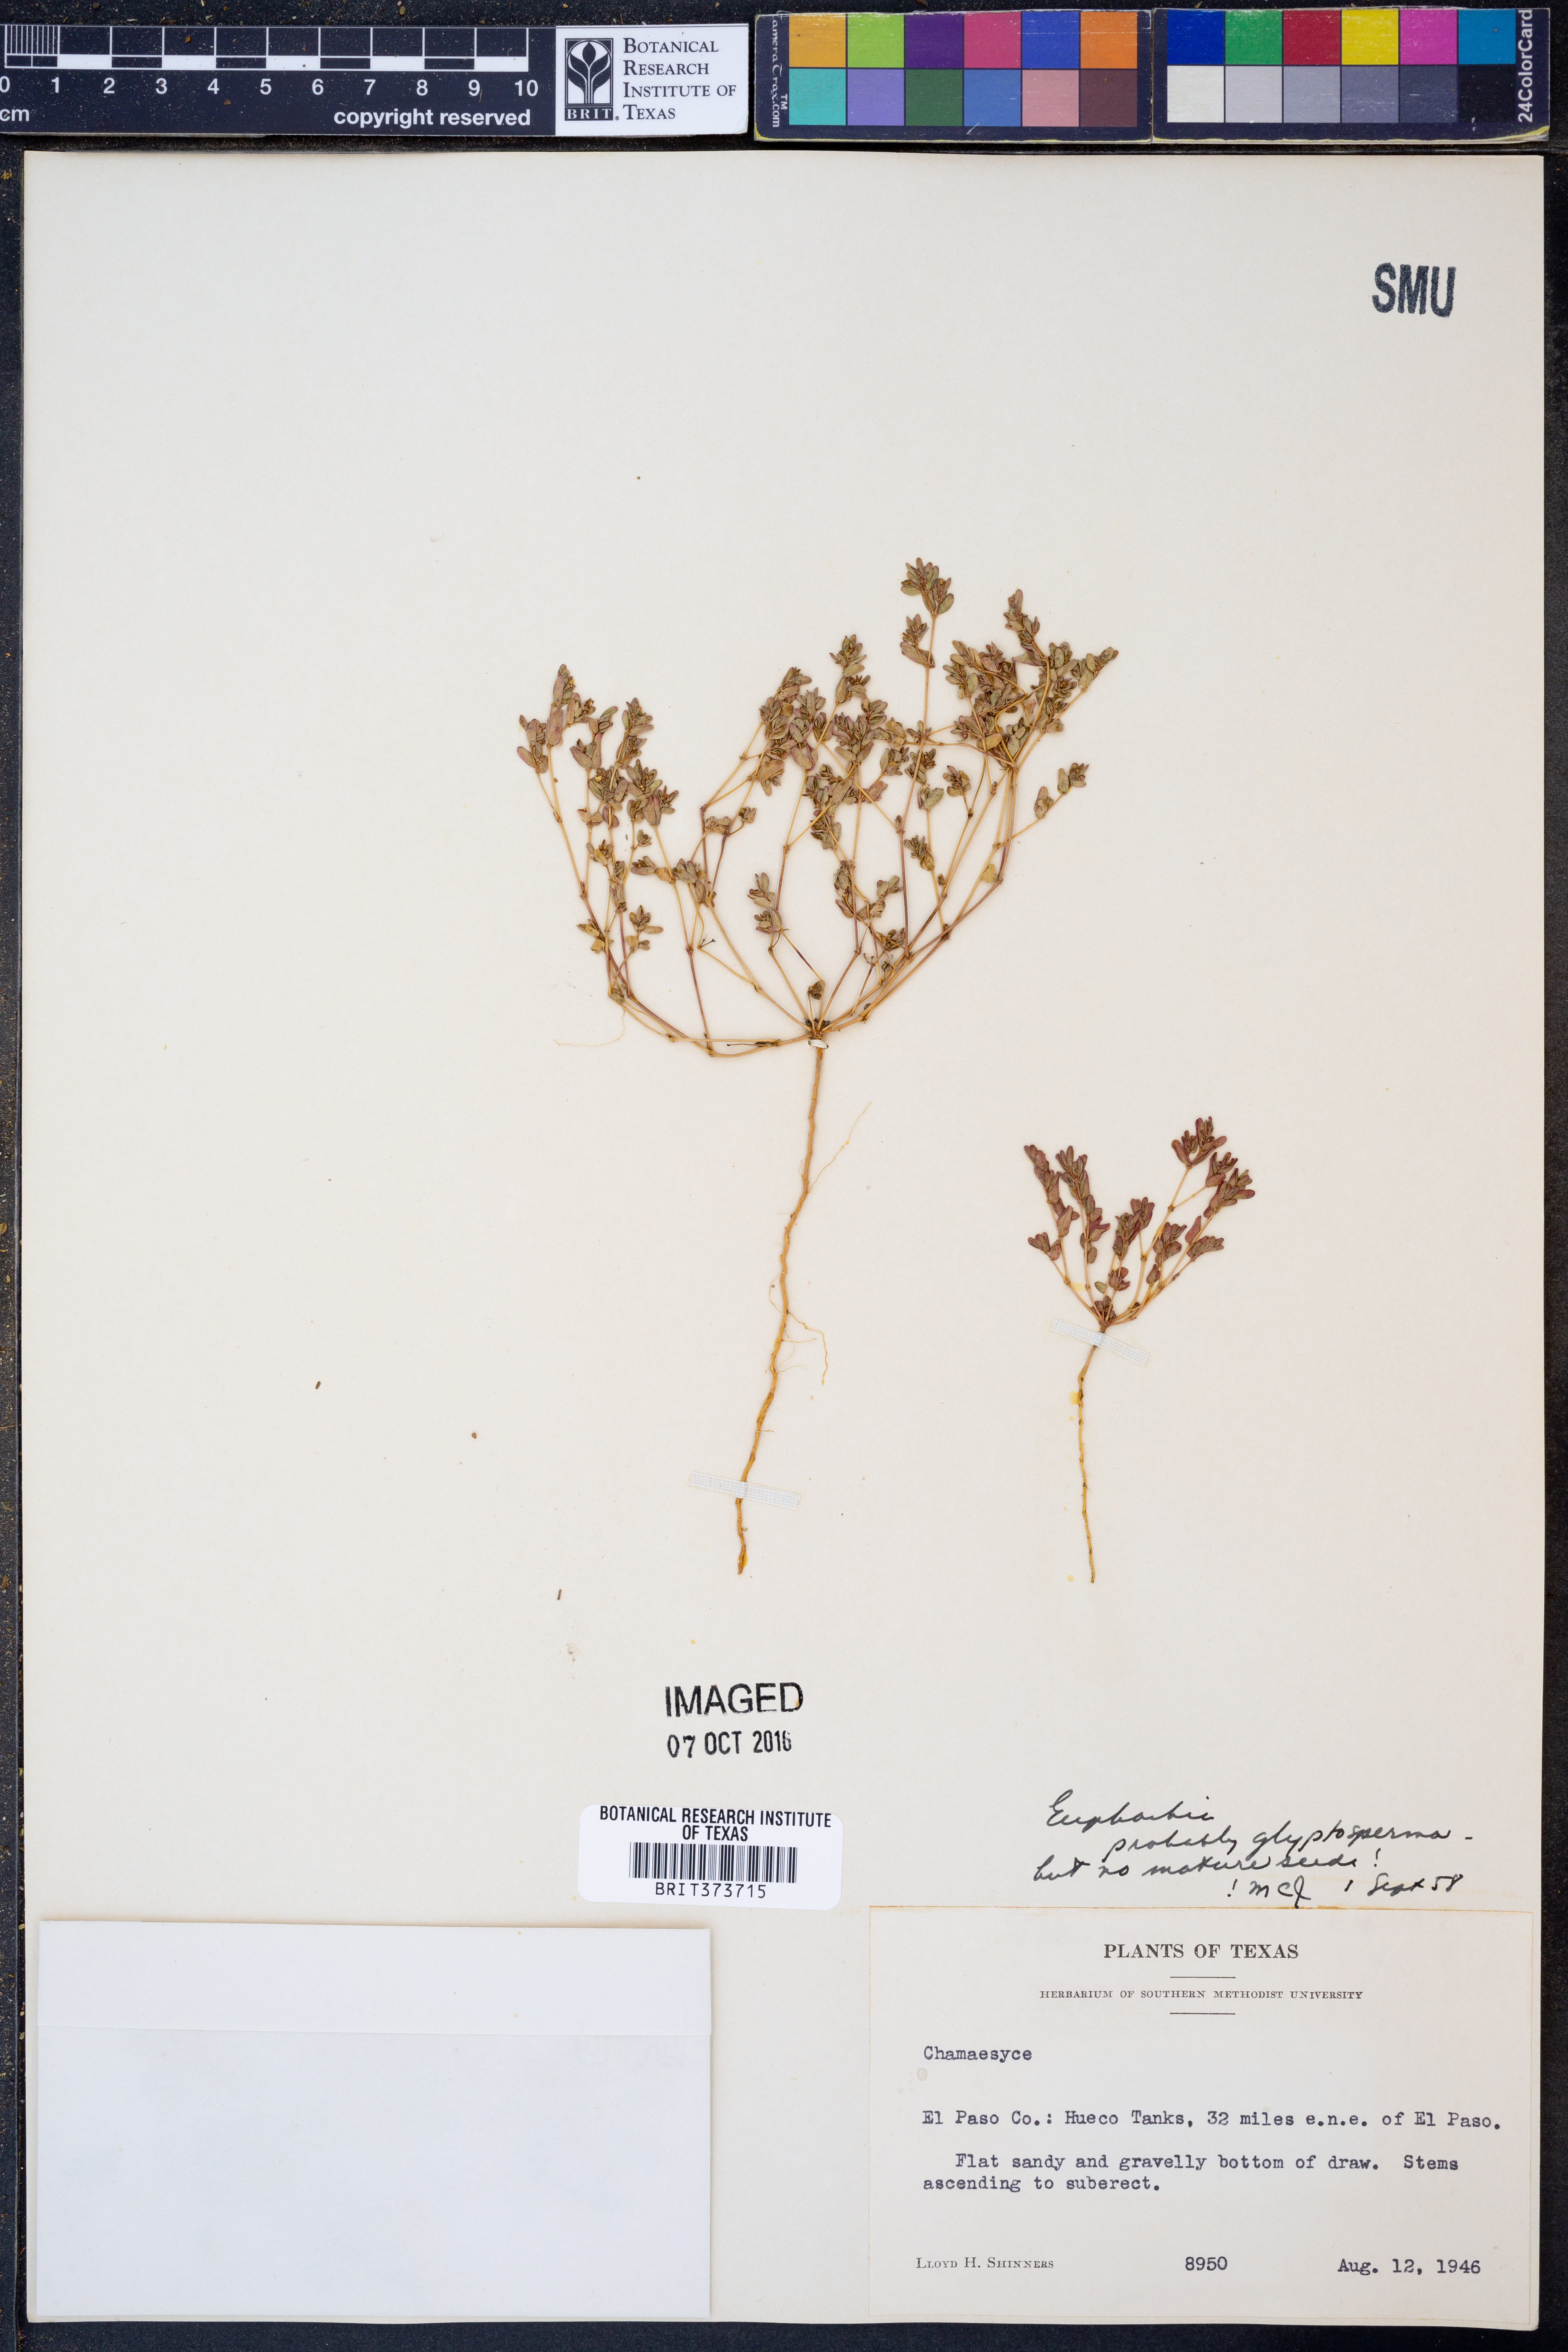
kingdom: Plantae
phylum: Tracheophyta
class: Magnoliopsida
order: Malpighiales
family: Euphorbiaceae
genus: Euphorbia
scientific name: Euphorbia glyptosperma
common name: Corrugate-seeded spurge
